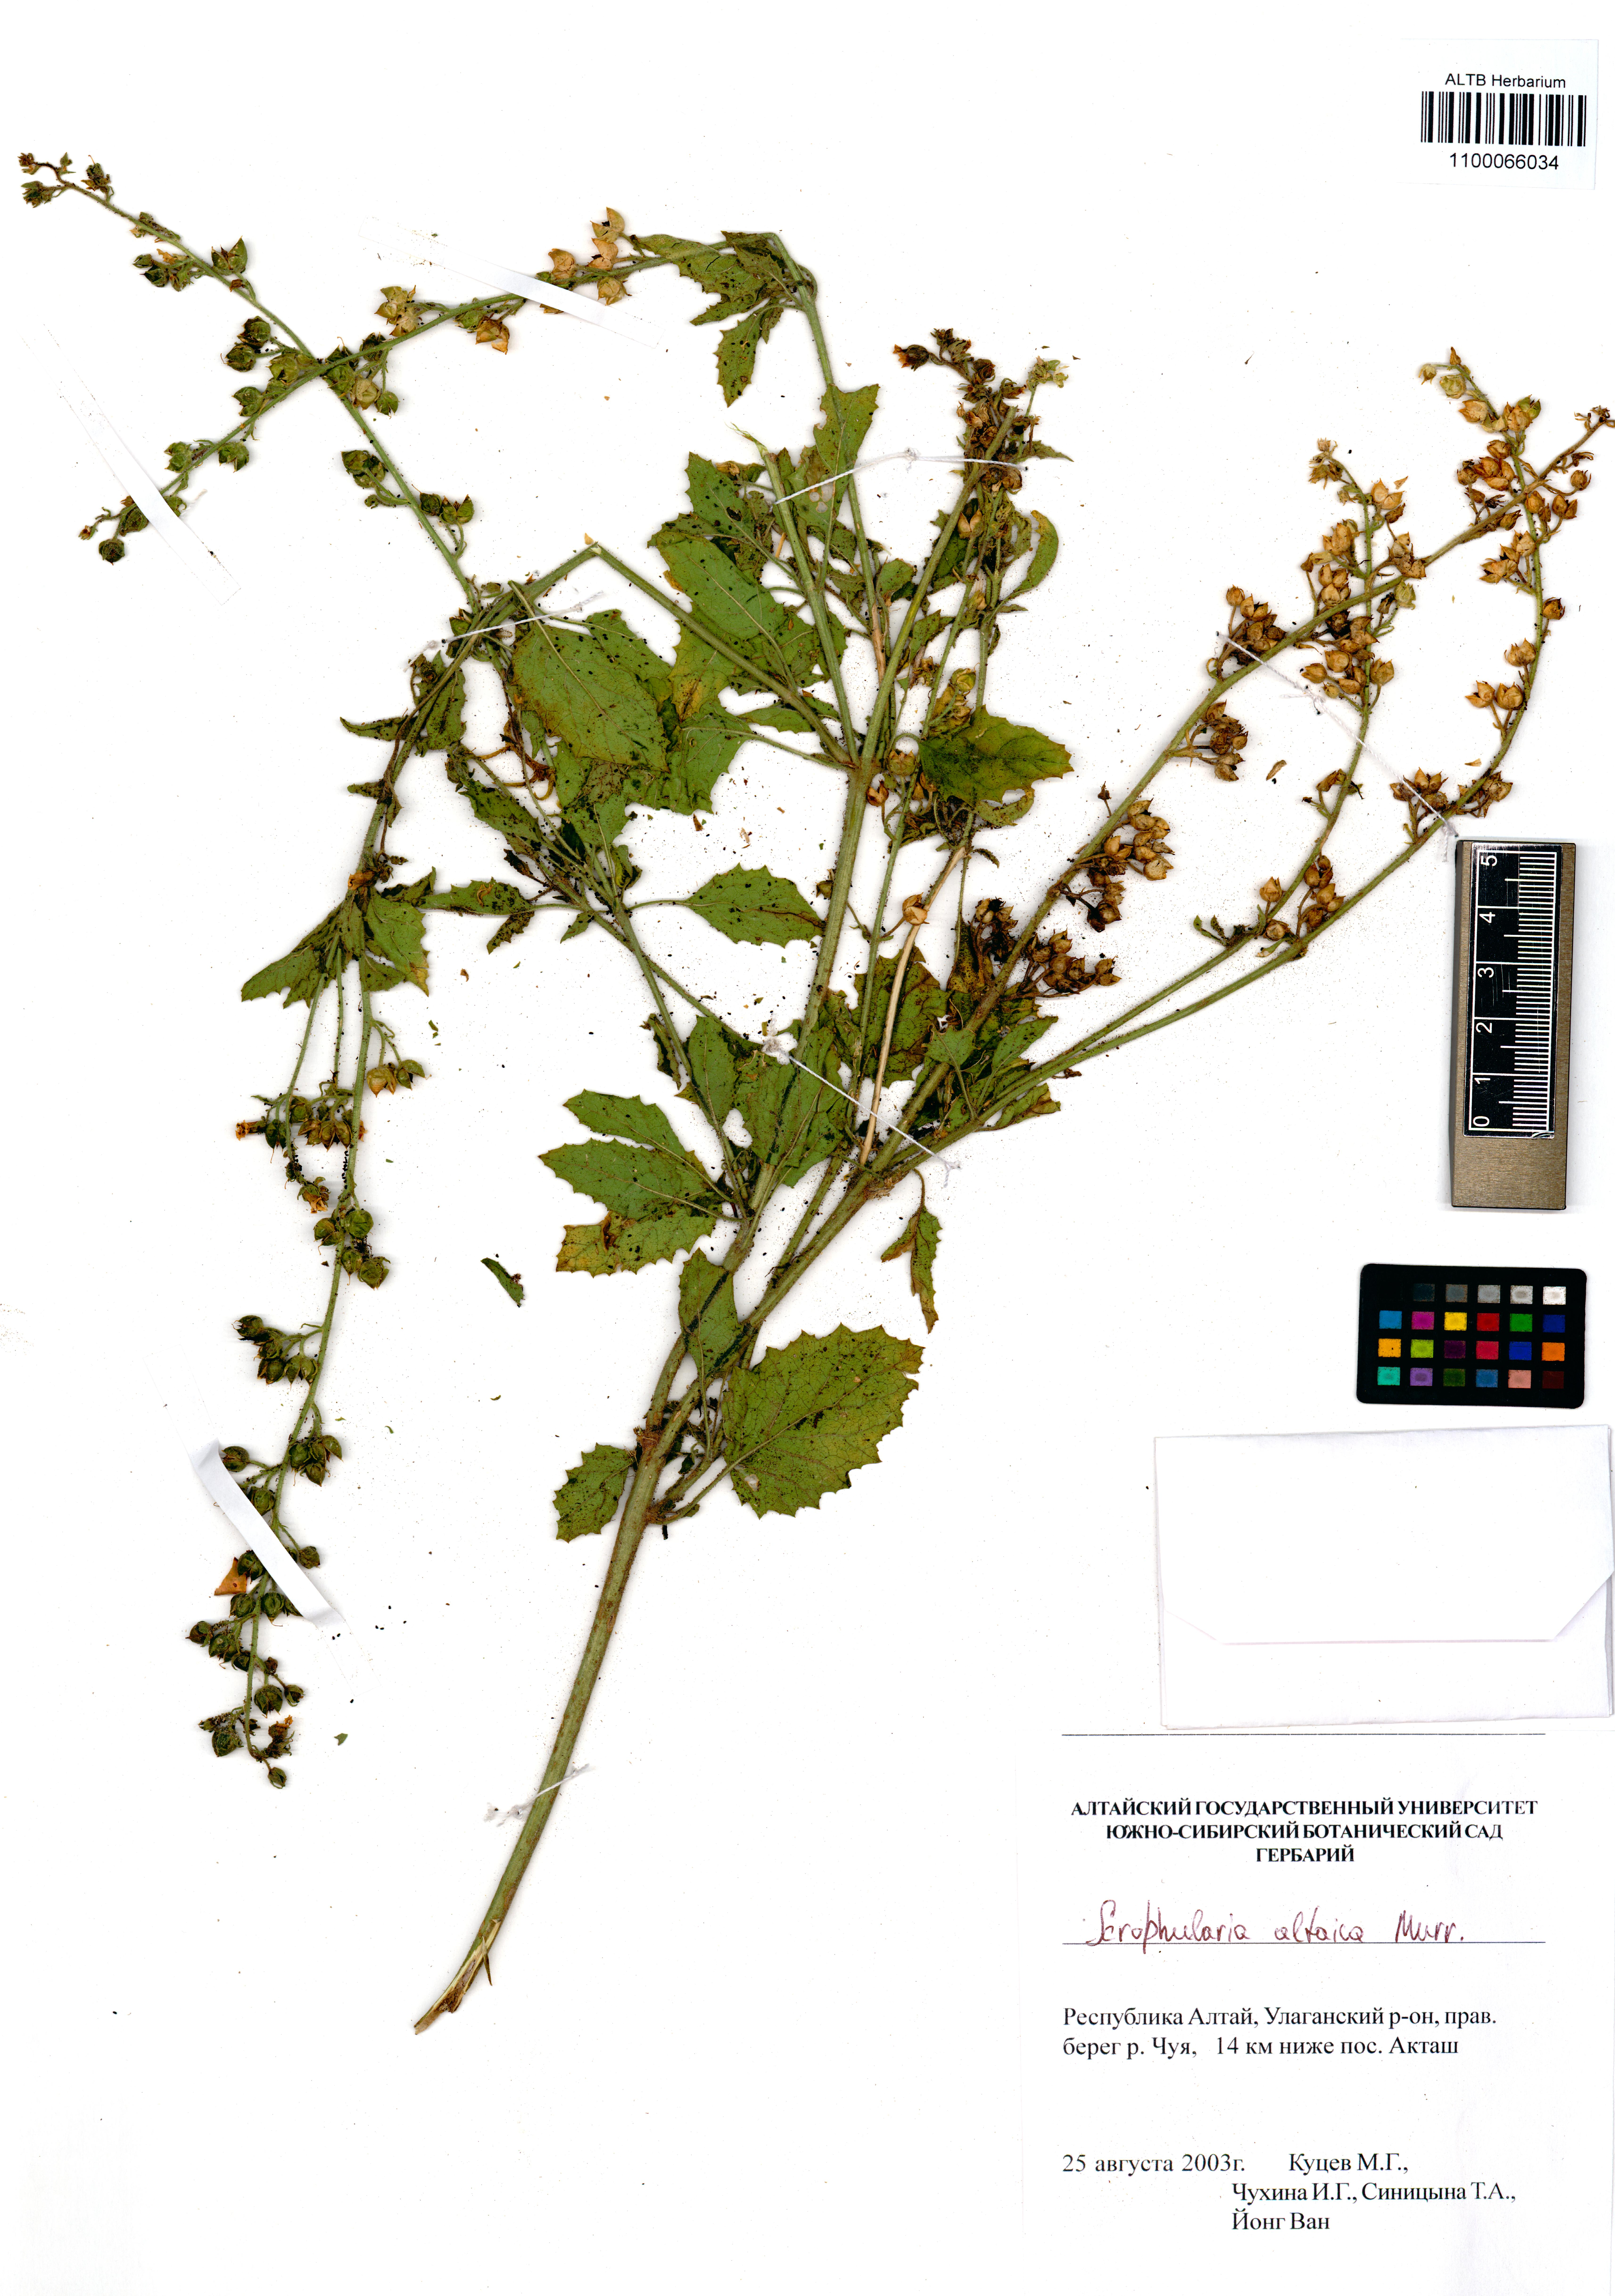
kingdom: Plantae
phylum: Tracheophyta
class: Magnoliopsida
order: Lamiales
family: Scrophulariaceae
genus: Scrophularia
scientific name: Scrophularia altaica
